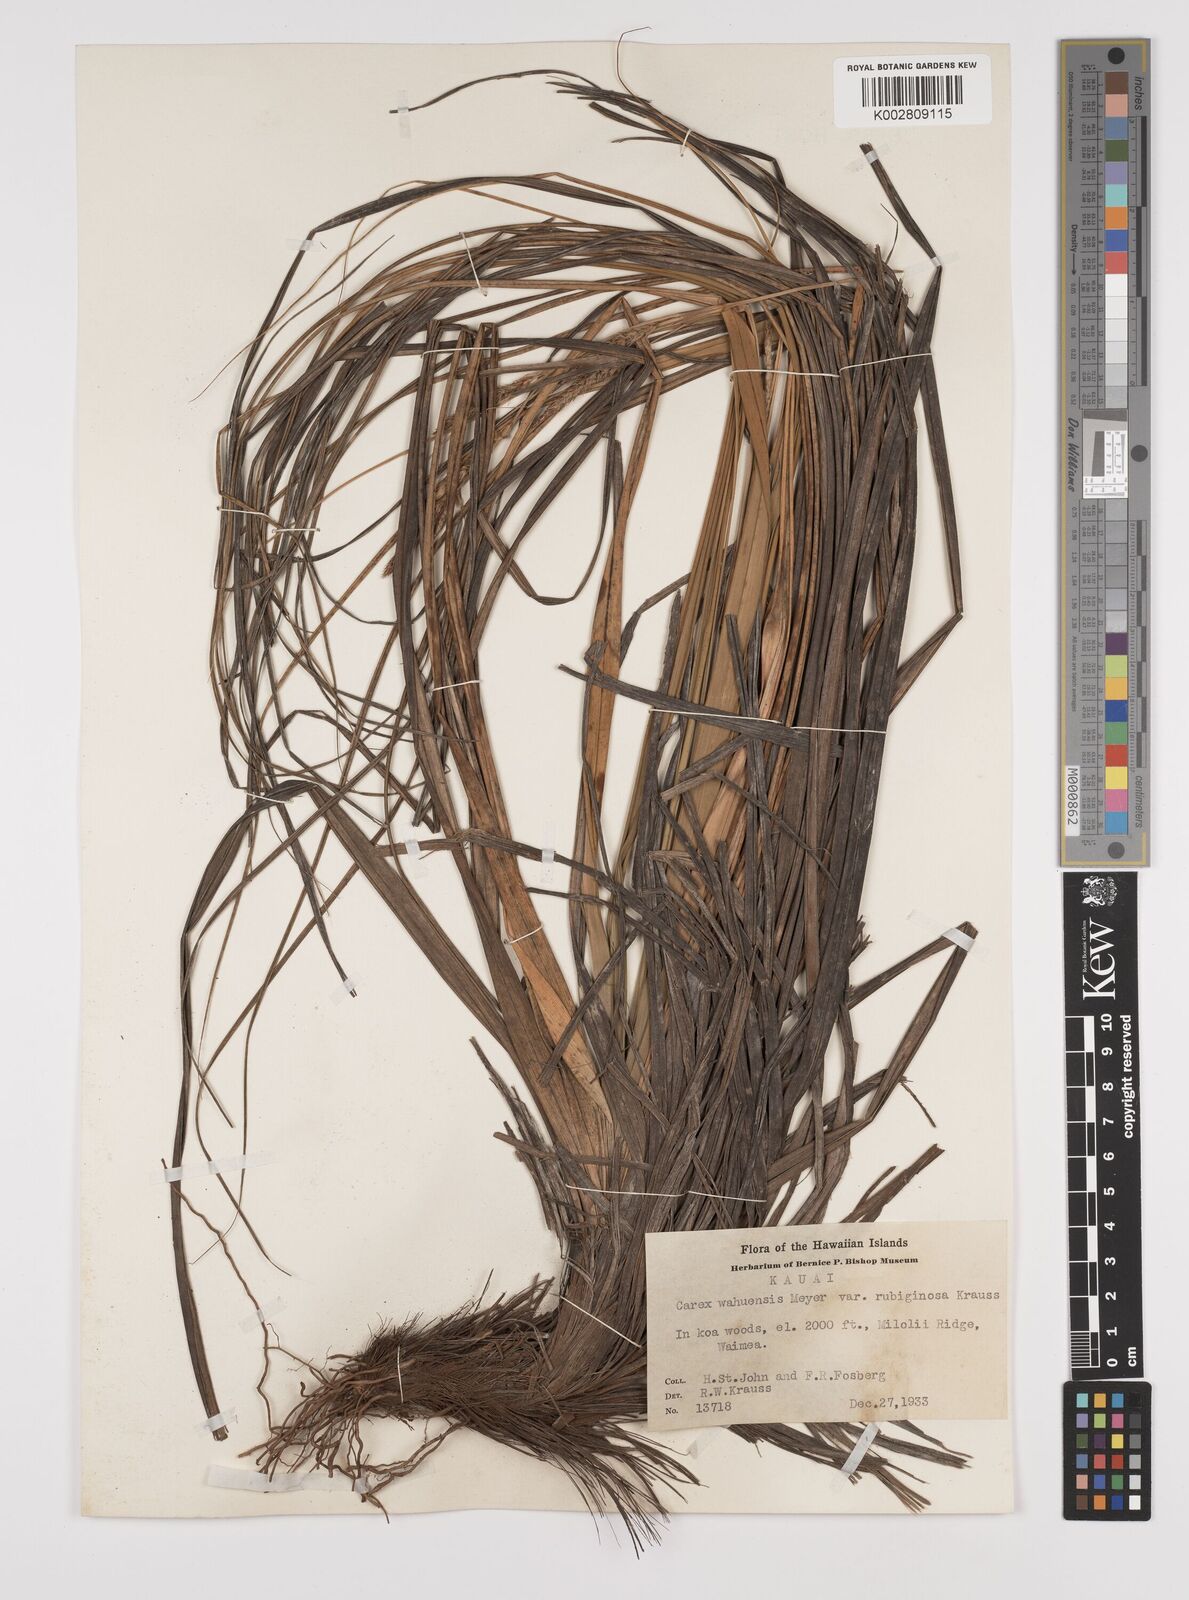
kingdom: Plantae
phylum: Tracheophyta
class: Liliopsida
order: Poales
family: Cyperaceae
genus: Carex
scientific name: Carex wahuensis
